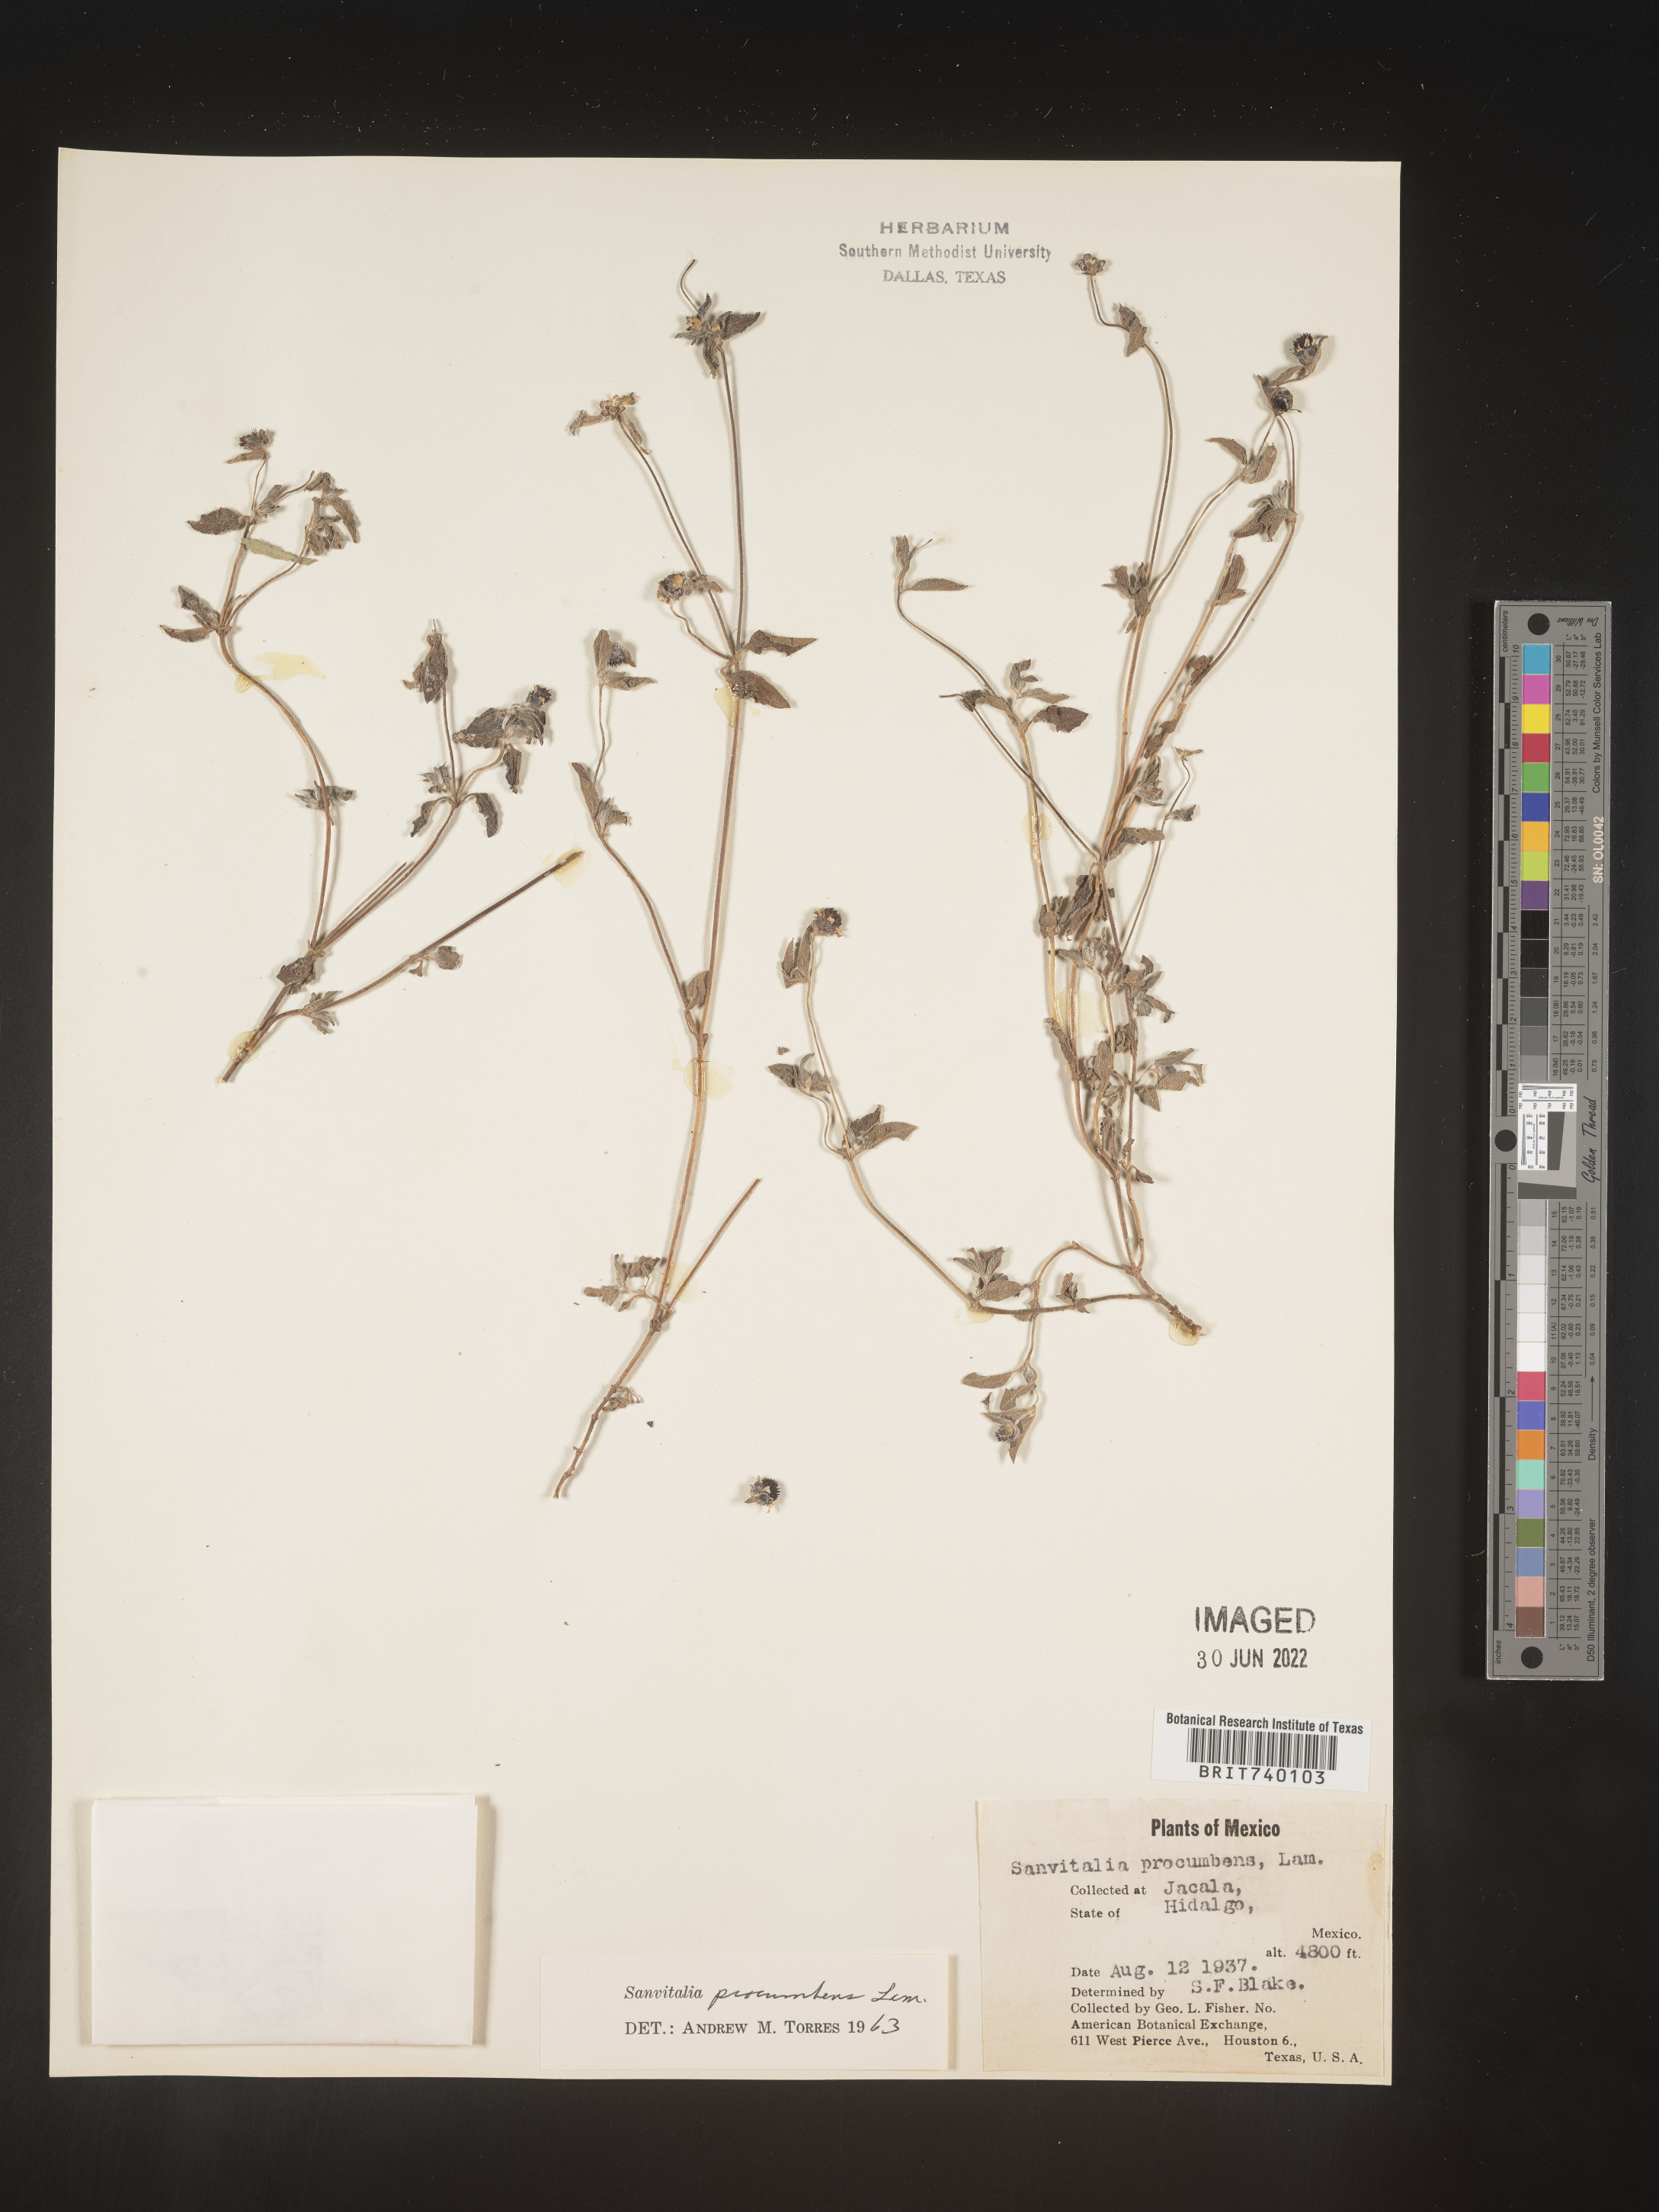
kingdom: Plantae
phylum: Tracheophyta
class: Magnoliopsida
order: Asterales
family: Asteraceae
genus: Sanvitalia
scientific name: Sanvitalia
